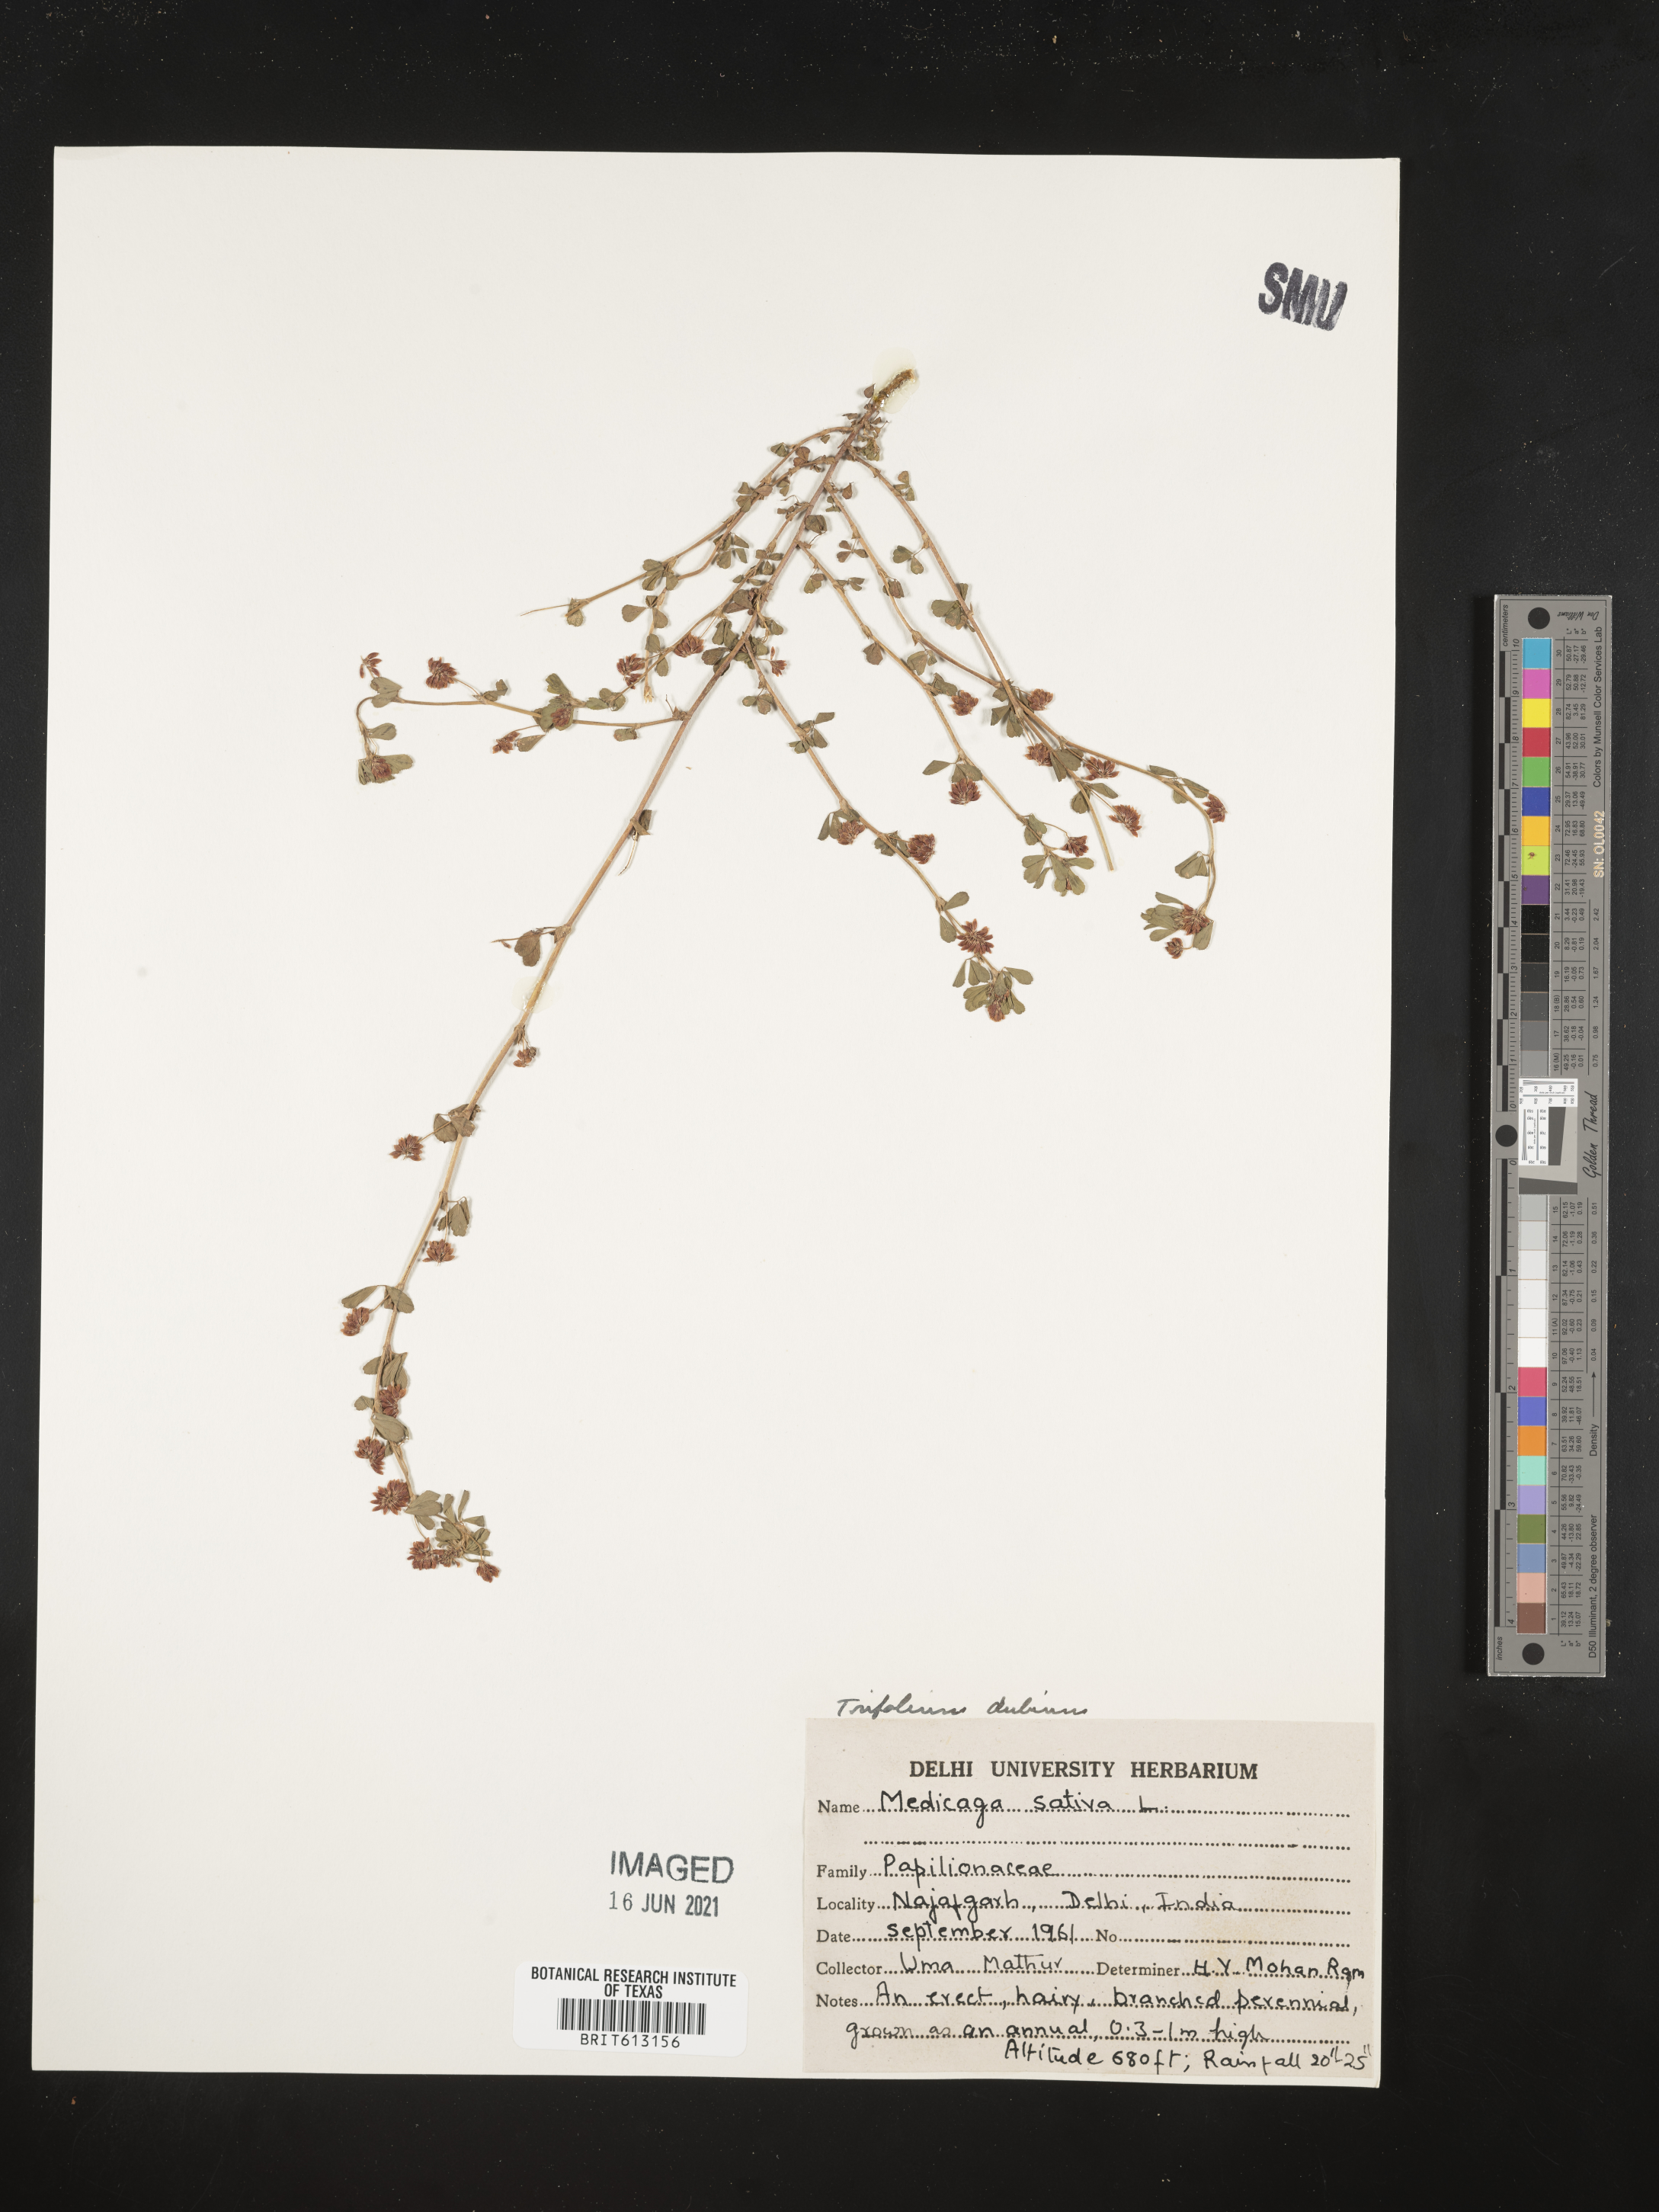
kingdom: Plantae
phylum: Tracheophyta
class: Magnoliopsida
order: Fabales
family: Fabaceae
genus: Trifolium
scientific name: Trifolium dubium
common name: Suckling clover
